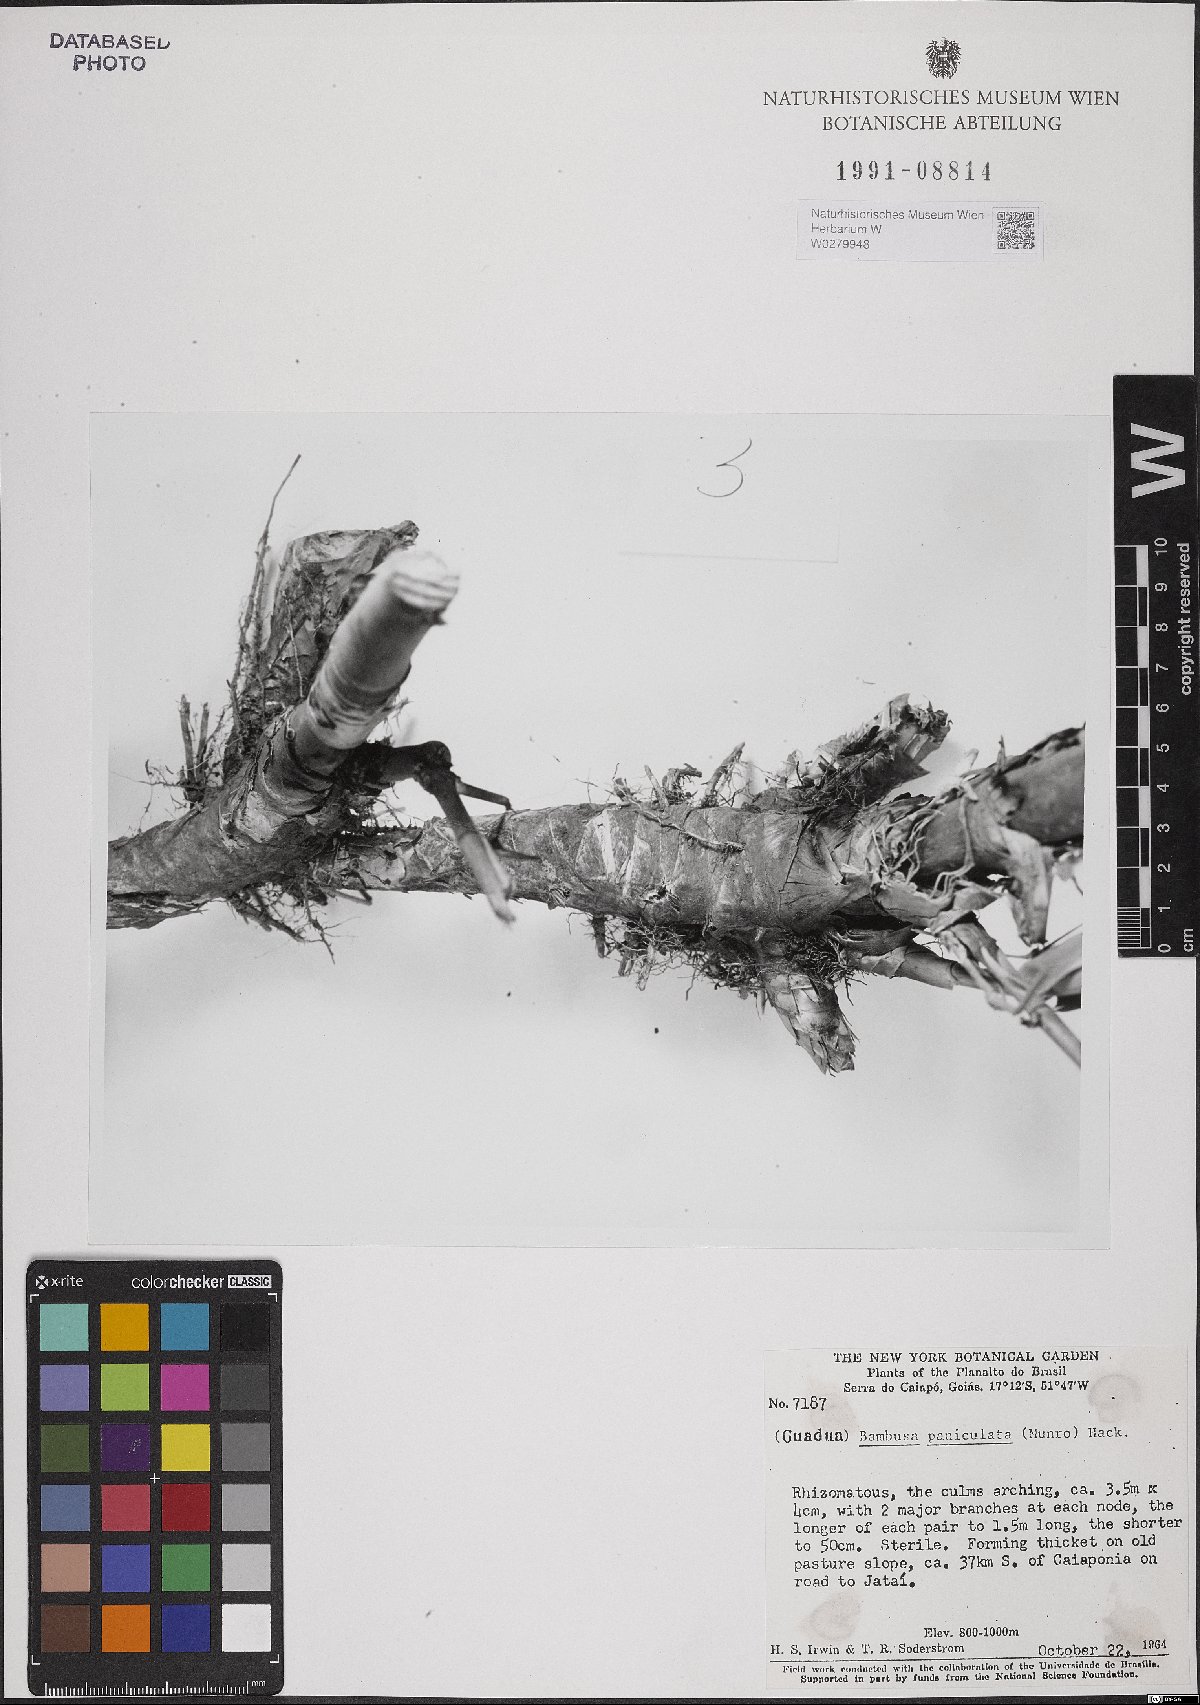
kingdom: Plantae
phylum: Tracheophyta
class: Liliopsida
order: Poales
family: Poaceae
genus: Guadua
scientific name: Guadua paniculata
